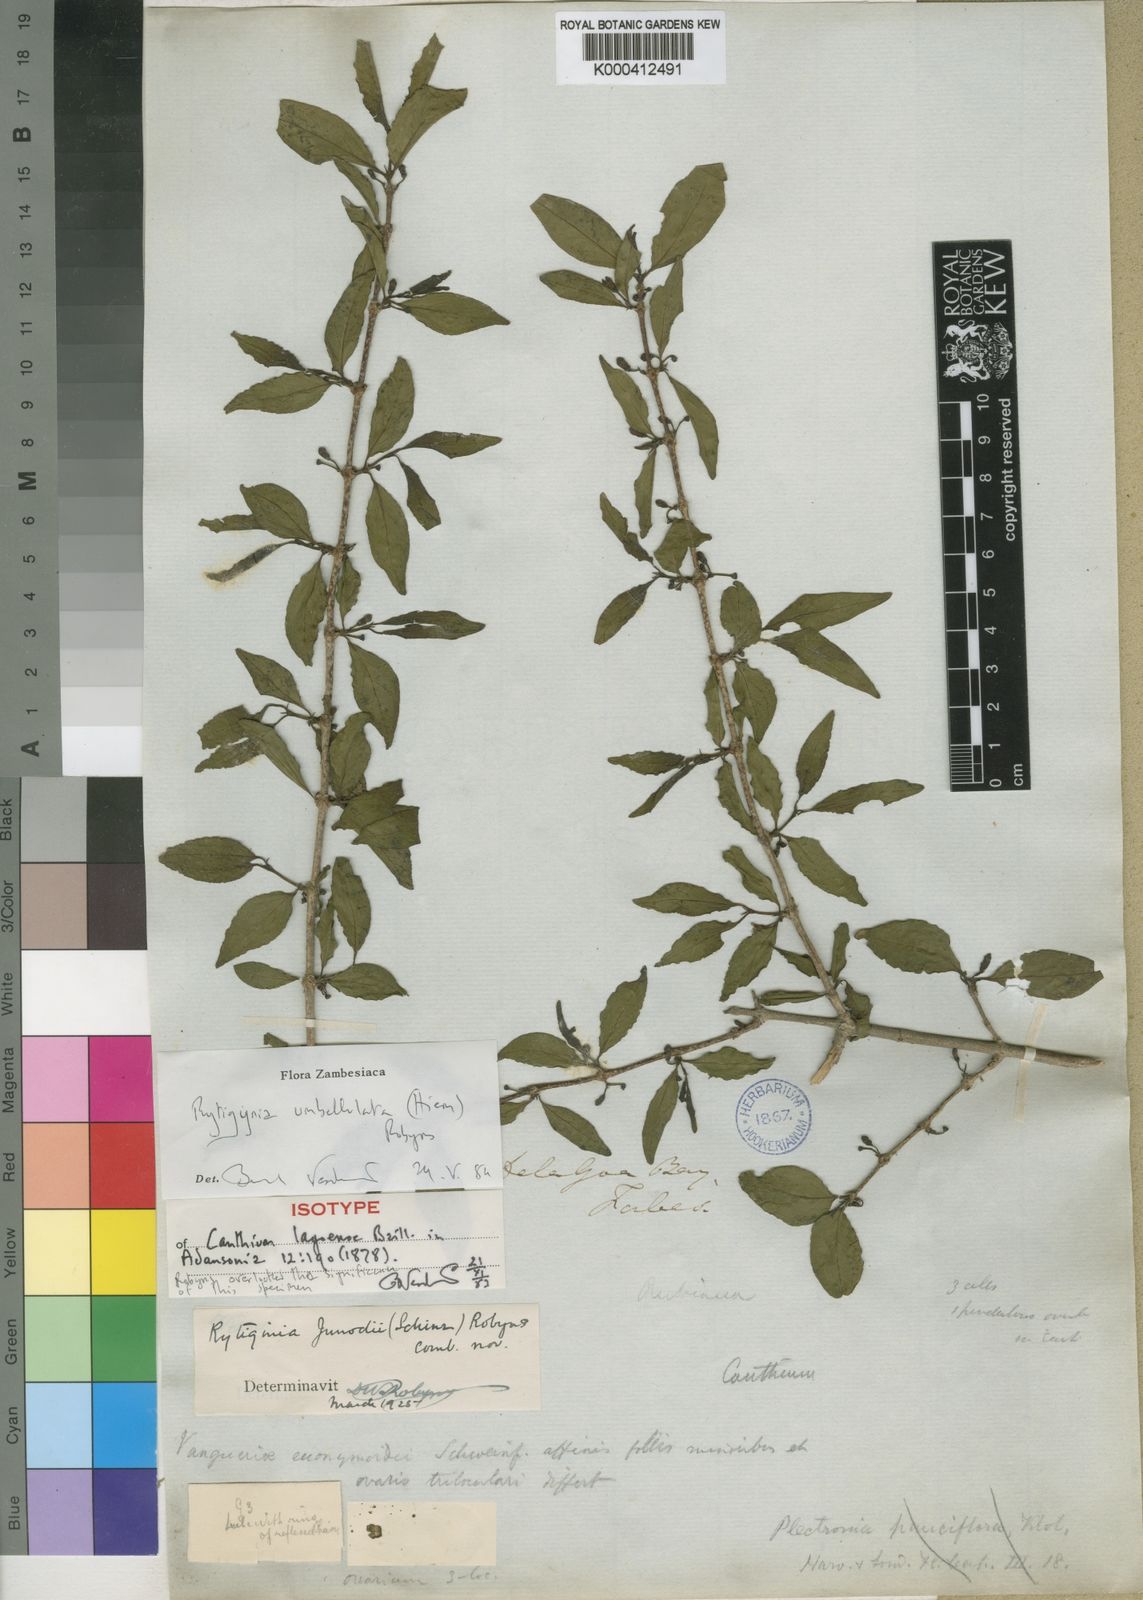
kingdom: Plantae
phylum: Tracheophyta
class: Magnoliopsida
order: Gentianales
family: Rubiaceae
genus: Rytigynia
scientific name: Rytigynia umbellulata
